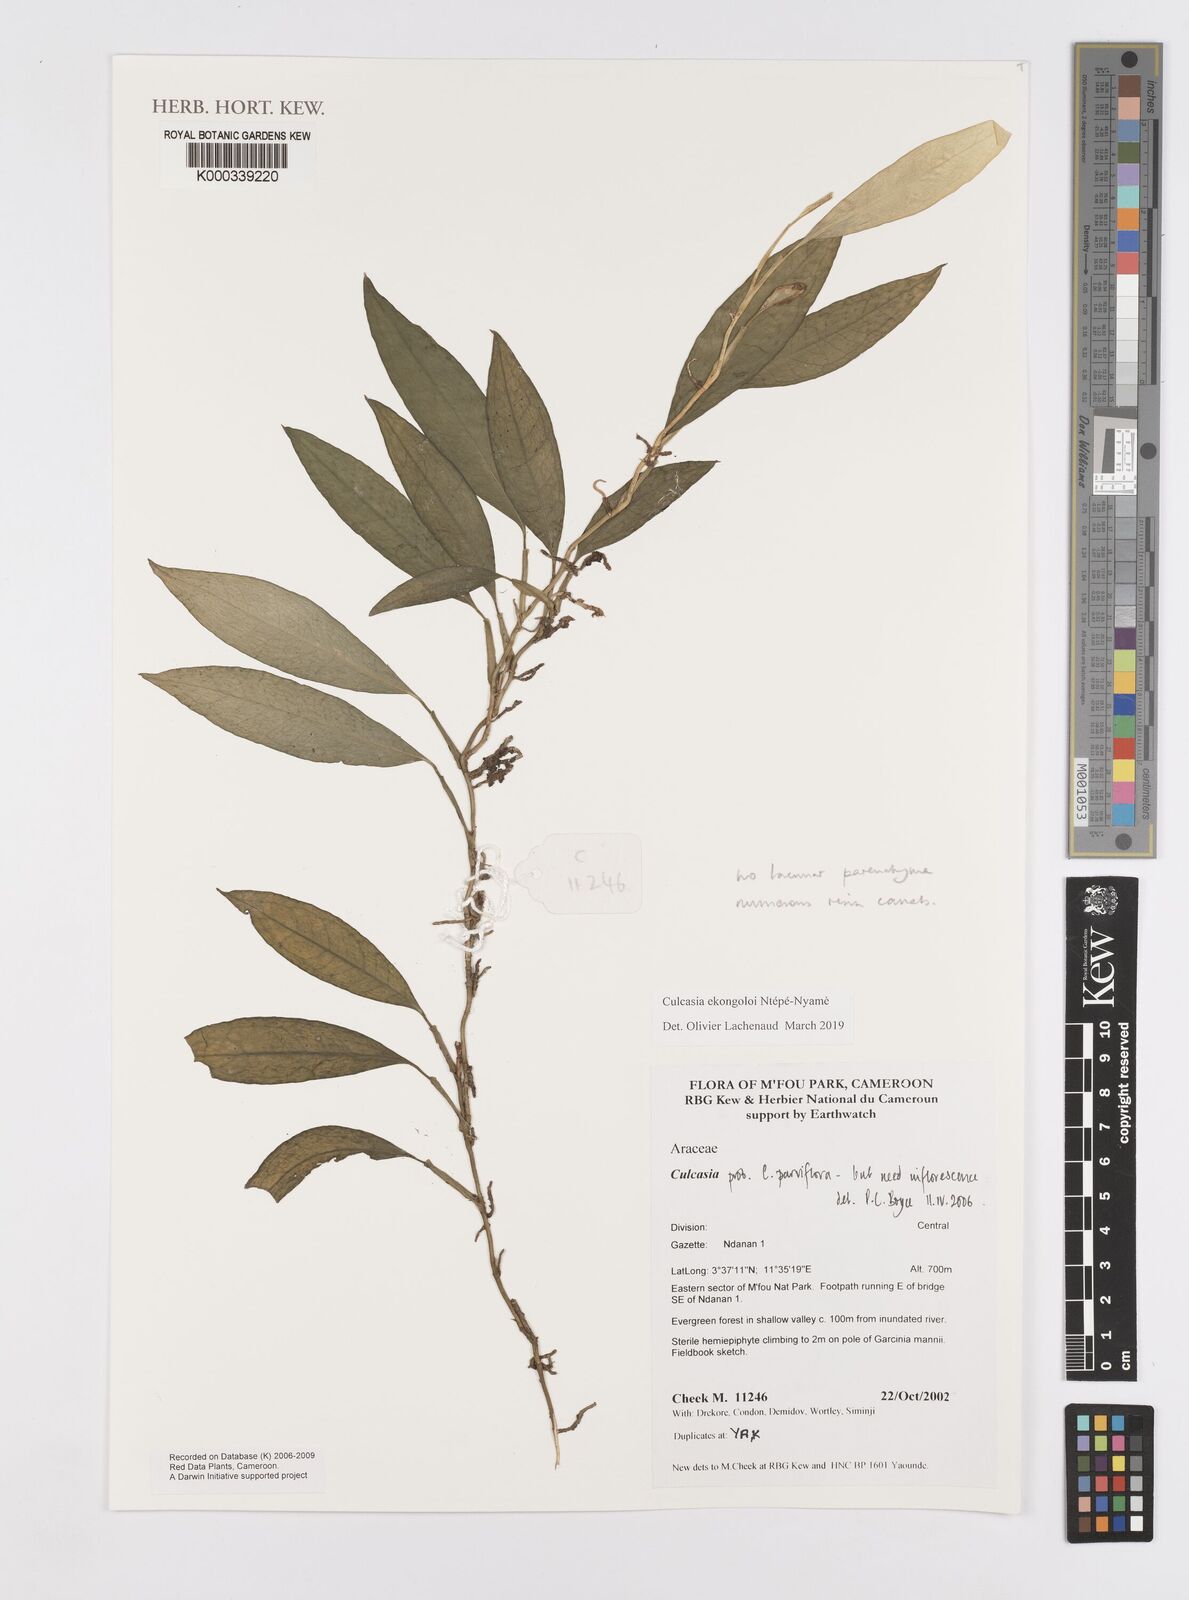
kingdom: Plantae
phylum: Tracheophyta
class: Liliopsida
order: Alismatales
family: Araceae
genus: Culcasia
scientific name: Culcasia
